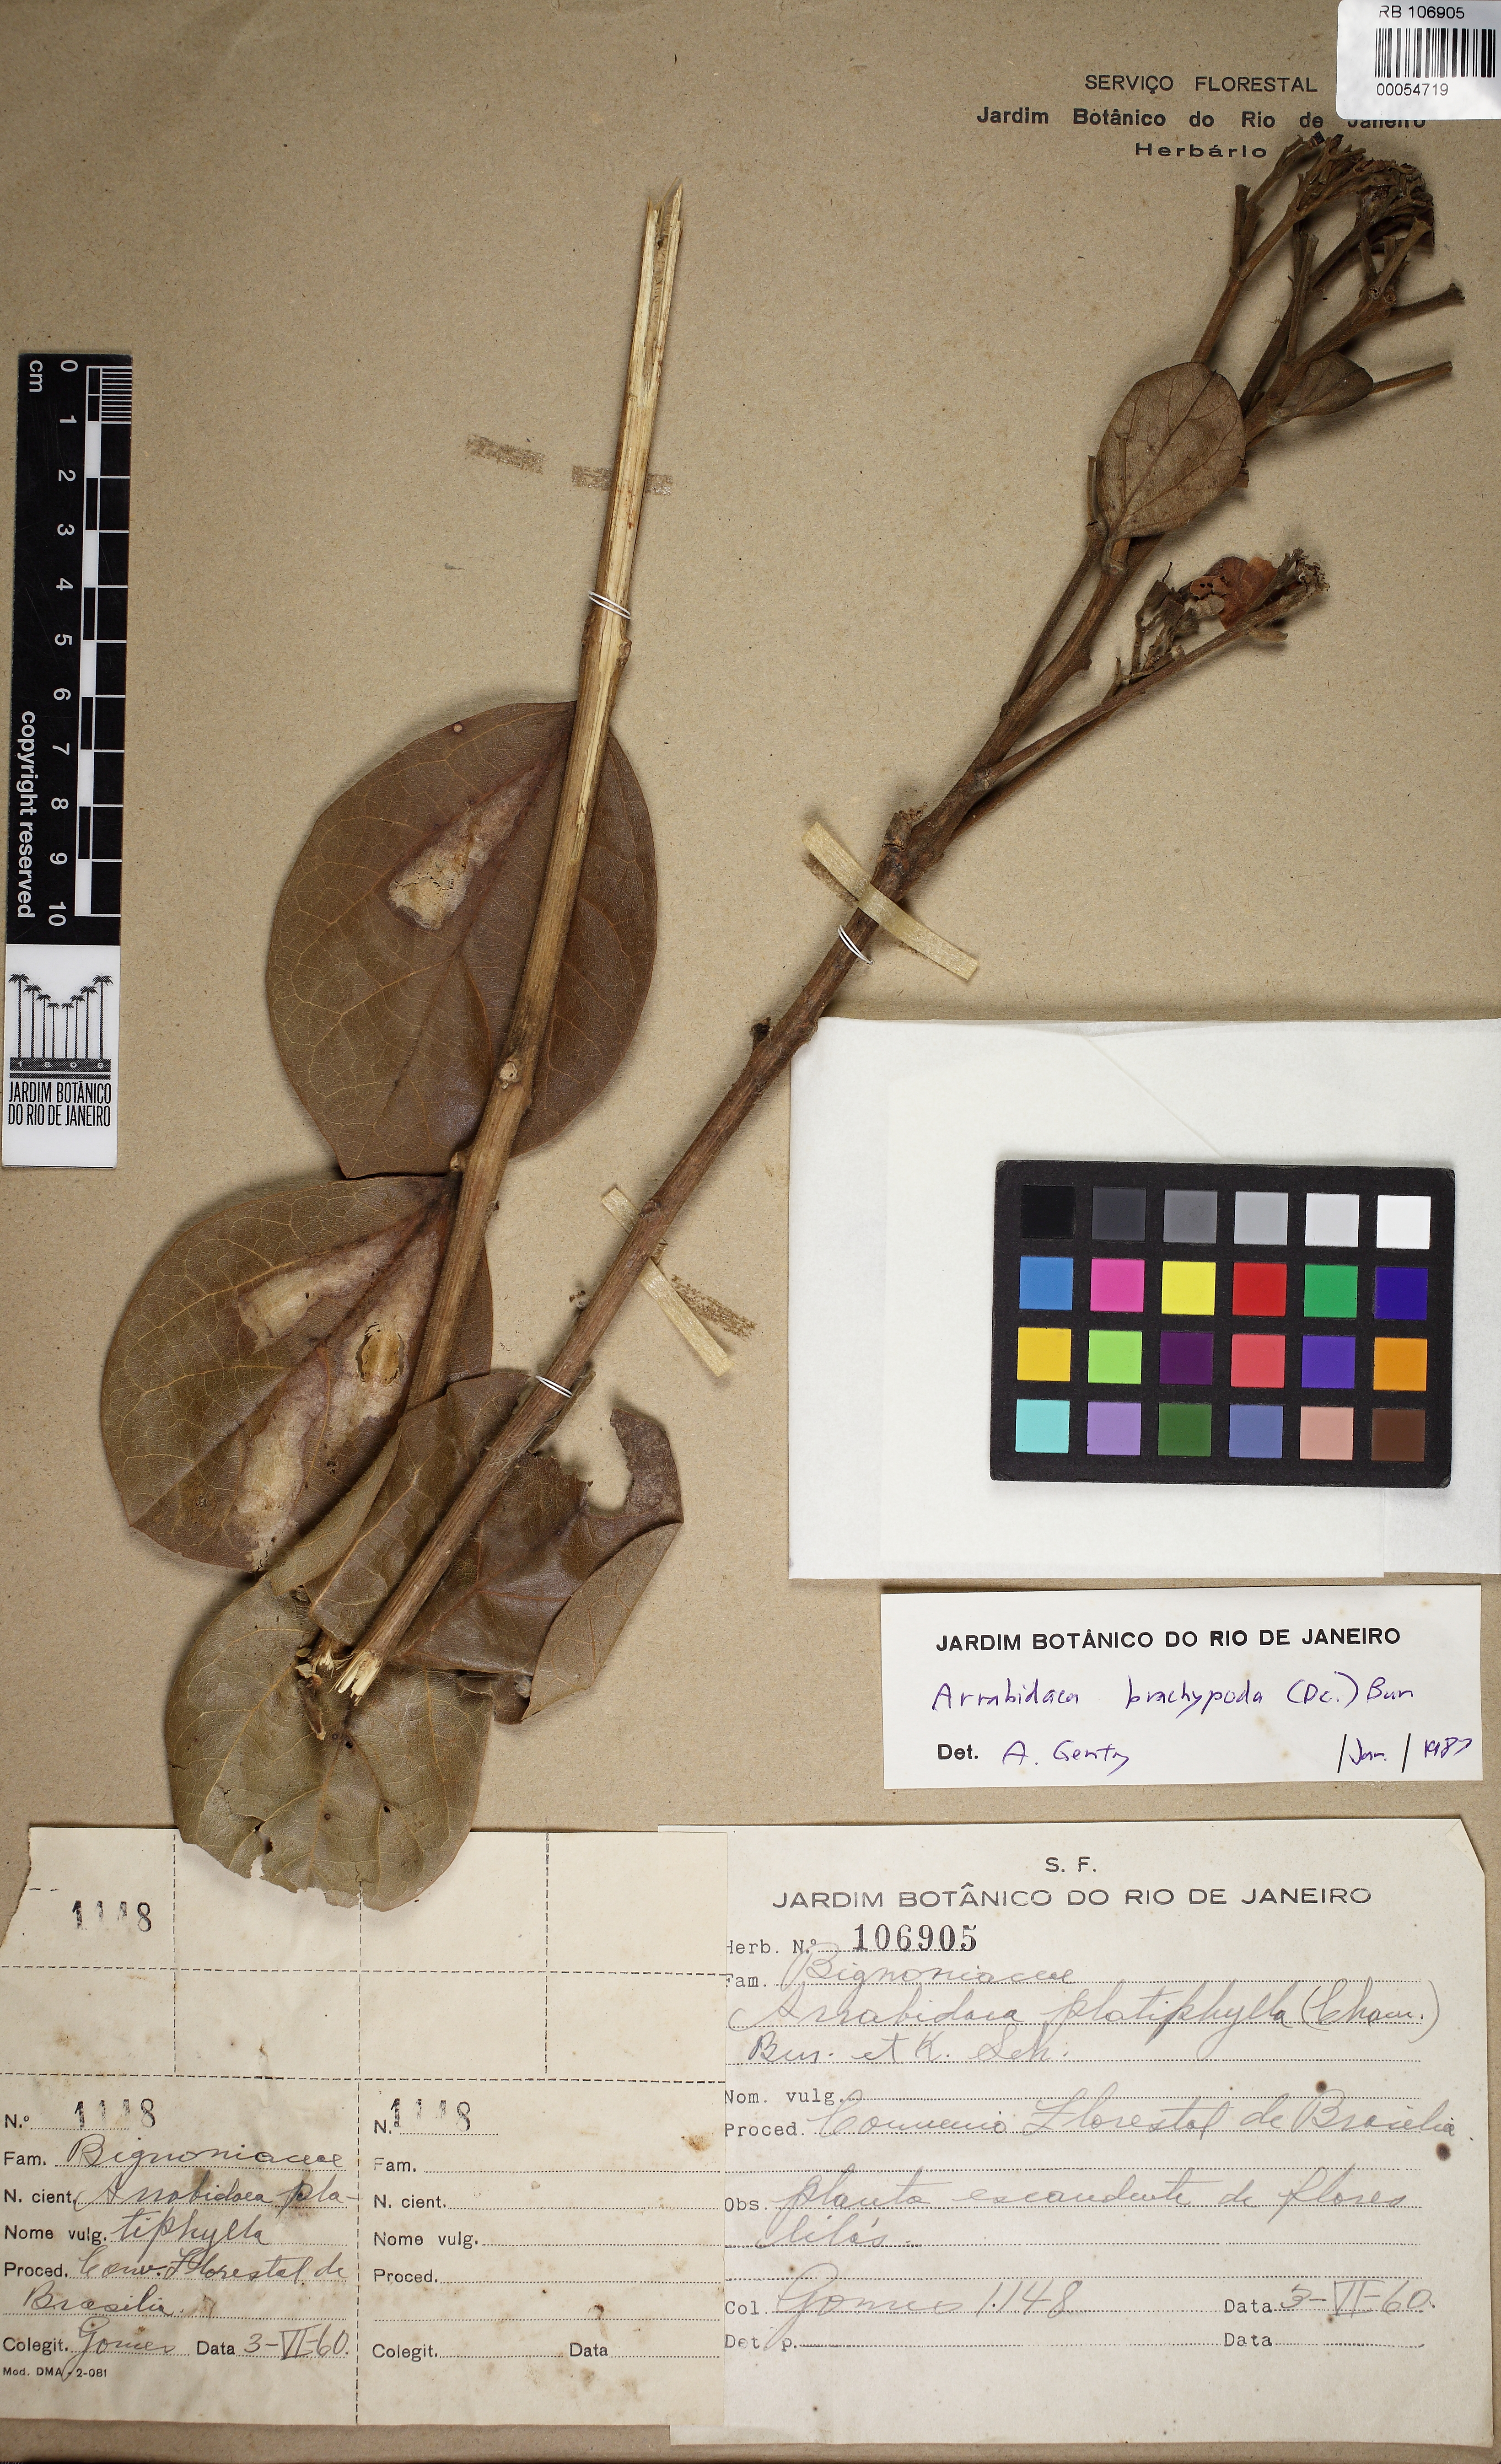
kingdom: Plantae
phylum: Tracheophyta
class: Magnoliopsida
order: Lamiales
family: Bignoniaceae
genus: Fridericia
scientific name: Fridericia platyphylla
